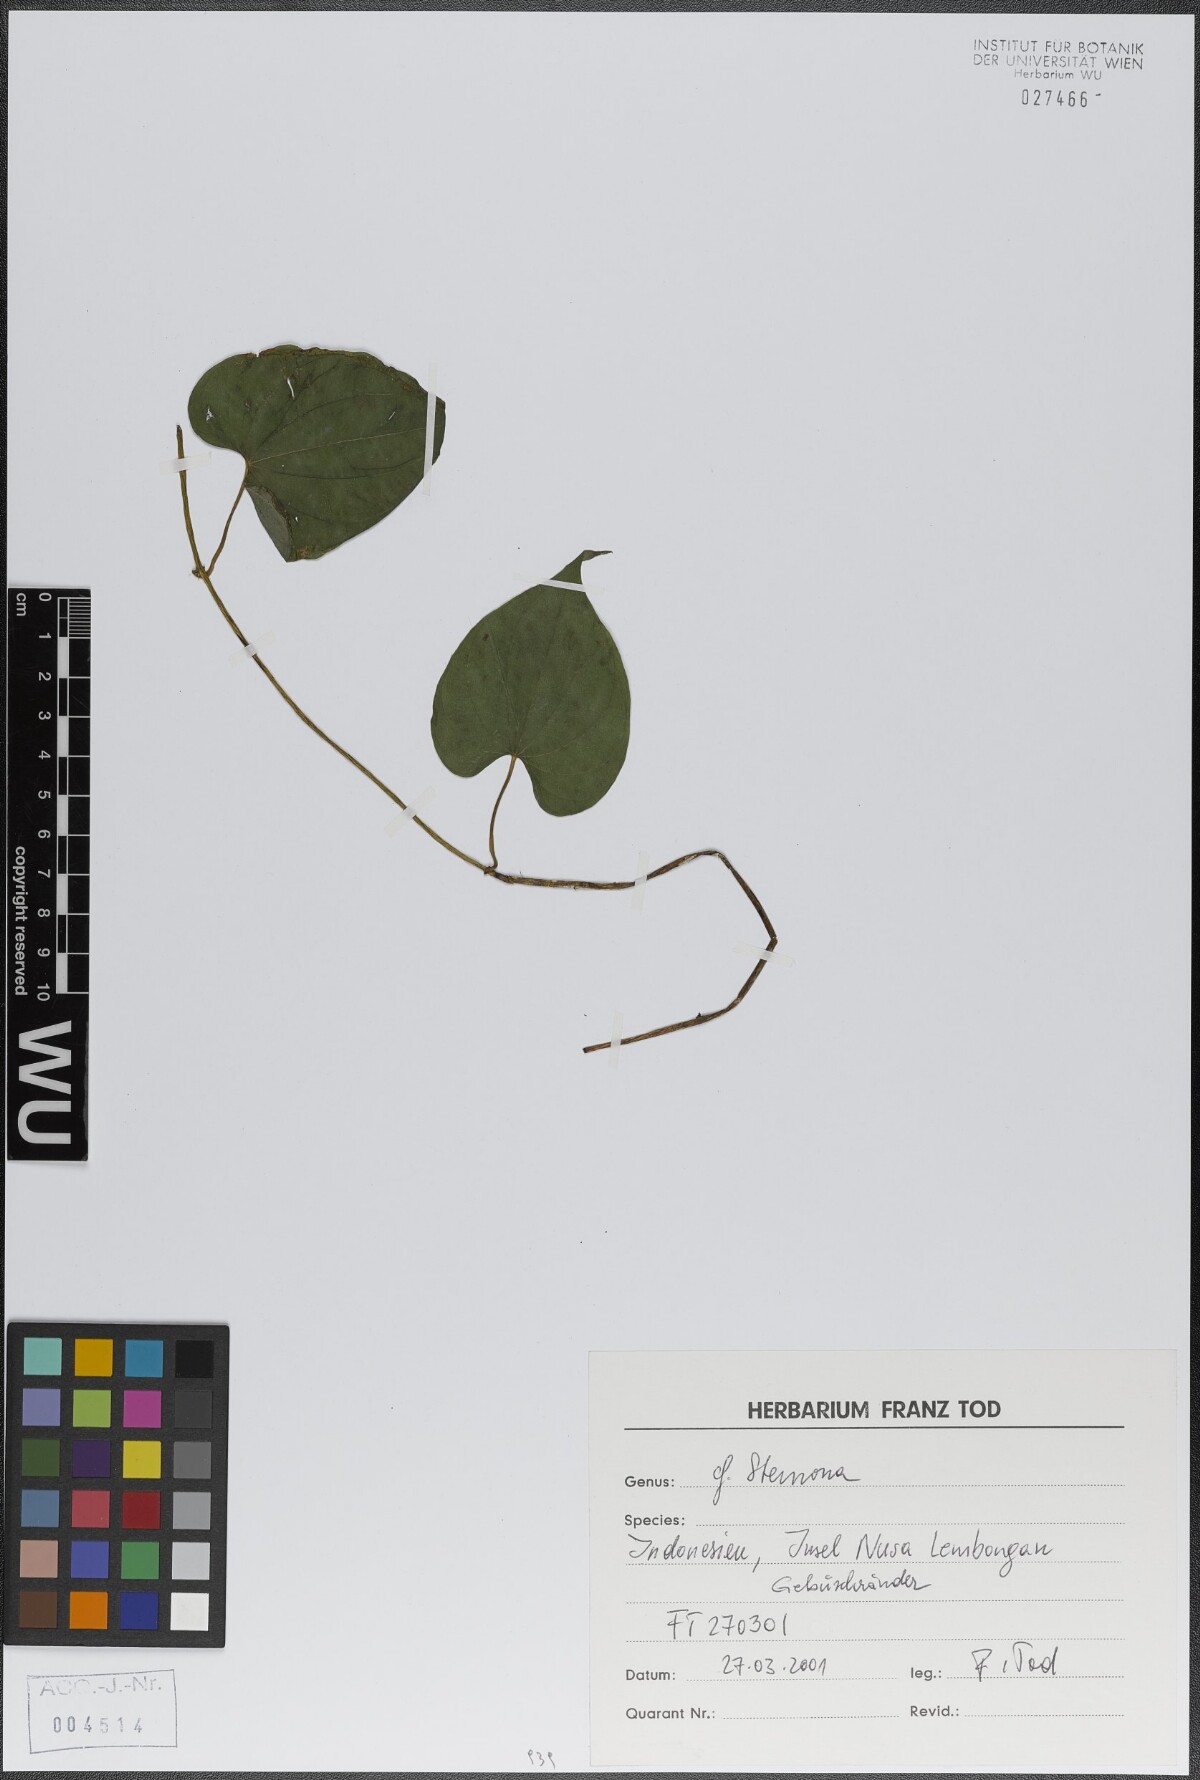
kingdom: Plantae
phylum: Tracheophyta
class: Liliopsida
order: Pandanales
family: Stemonaceae
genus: Stemona
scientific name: Stemona
